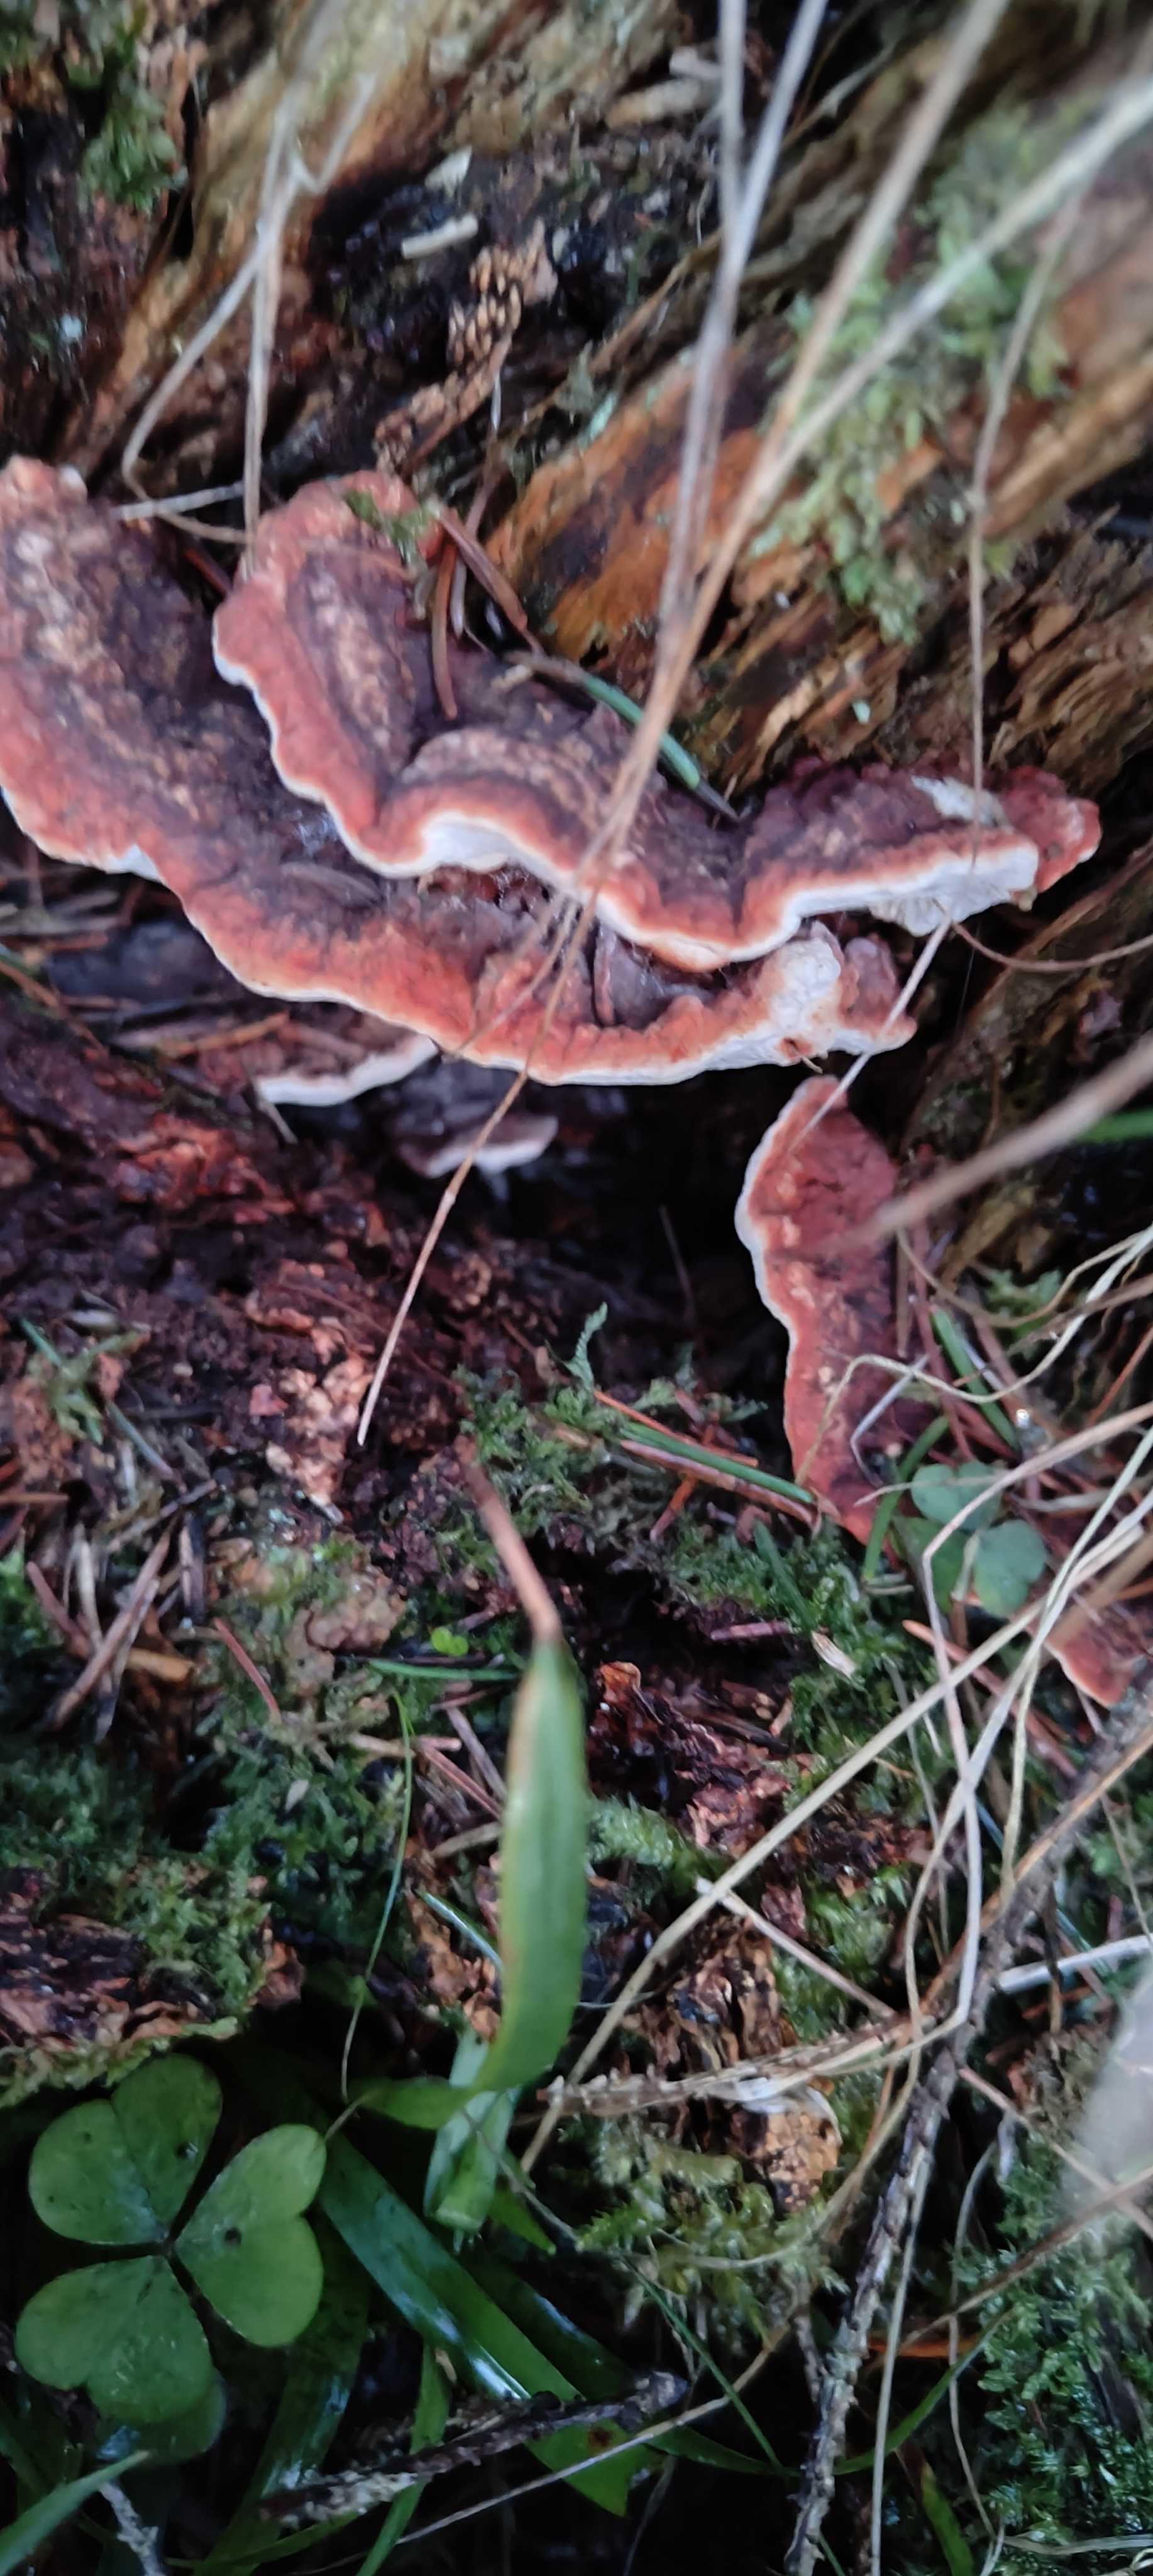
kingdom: Fungi
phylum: Basidiomycota
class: Agaricomycetes
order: Russulales
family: Bondarzewiaceae
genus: Heterobasidion
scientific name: Heterobasidion annosum
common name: almindelig rodfordærver
